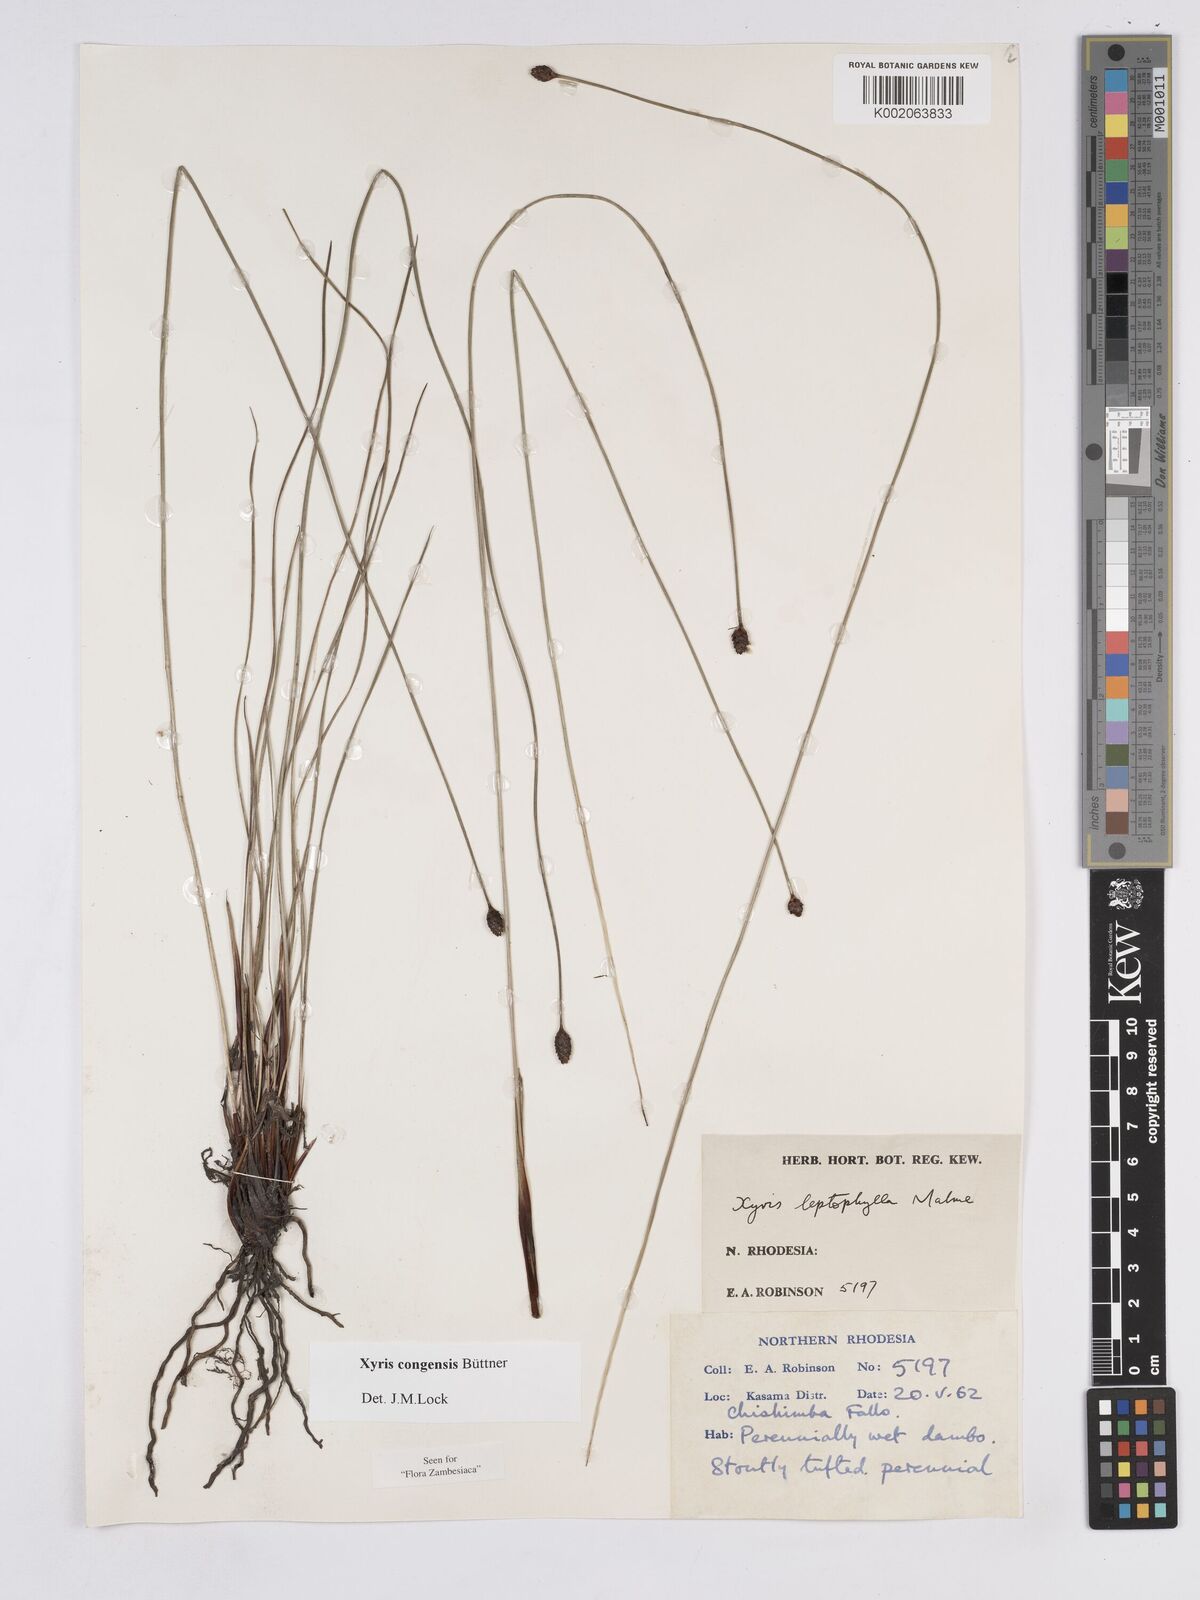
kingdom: Plantae
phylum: Tracheophyta
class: Liliopsida
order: Poales
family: Xyridaceae
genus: Xyris
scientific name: Xyris congensis
